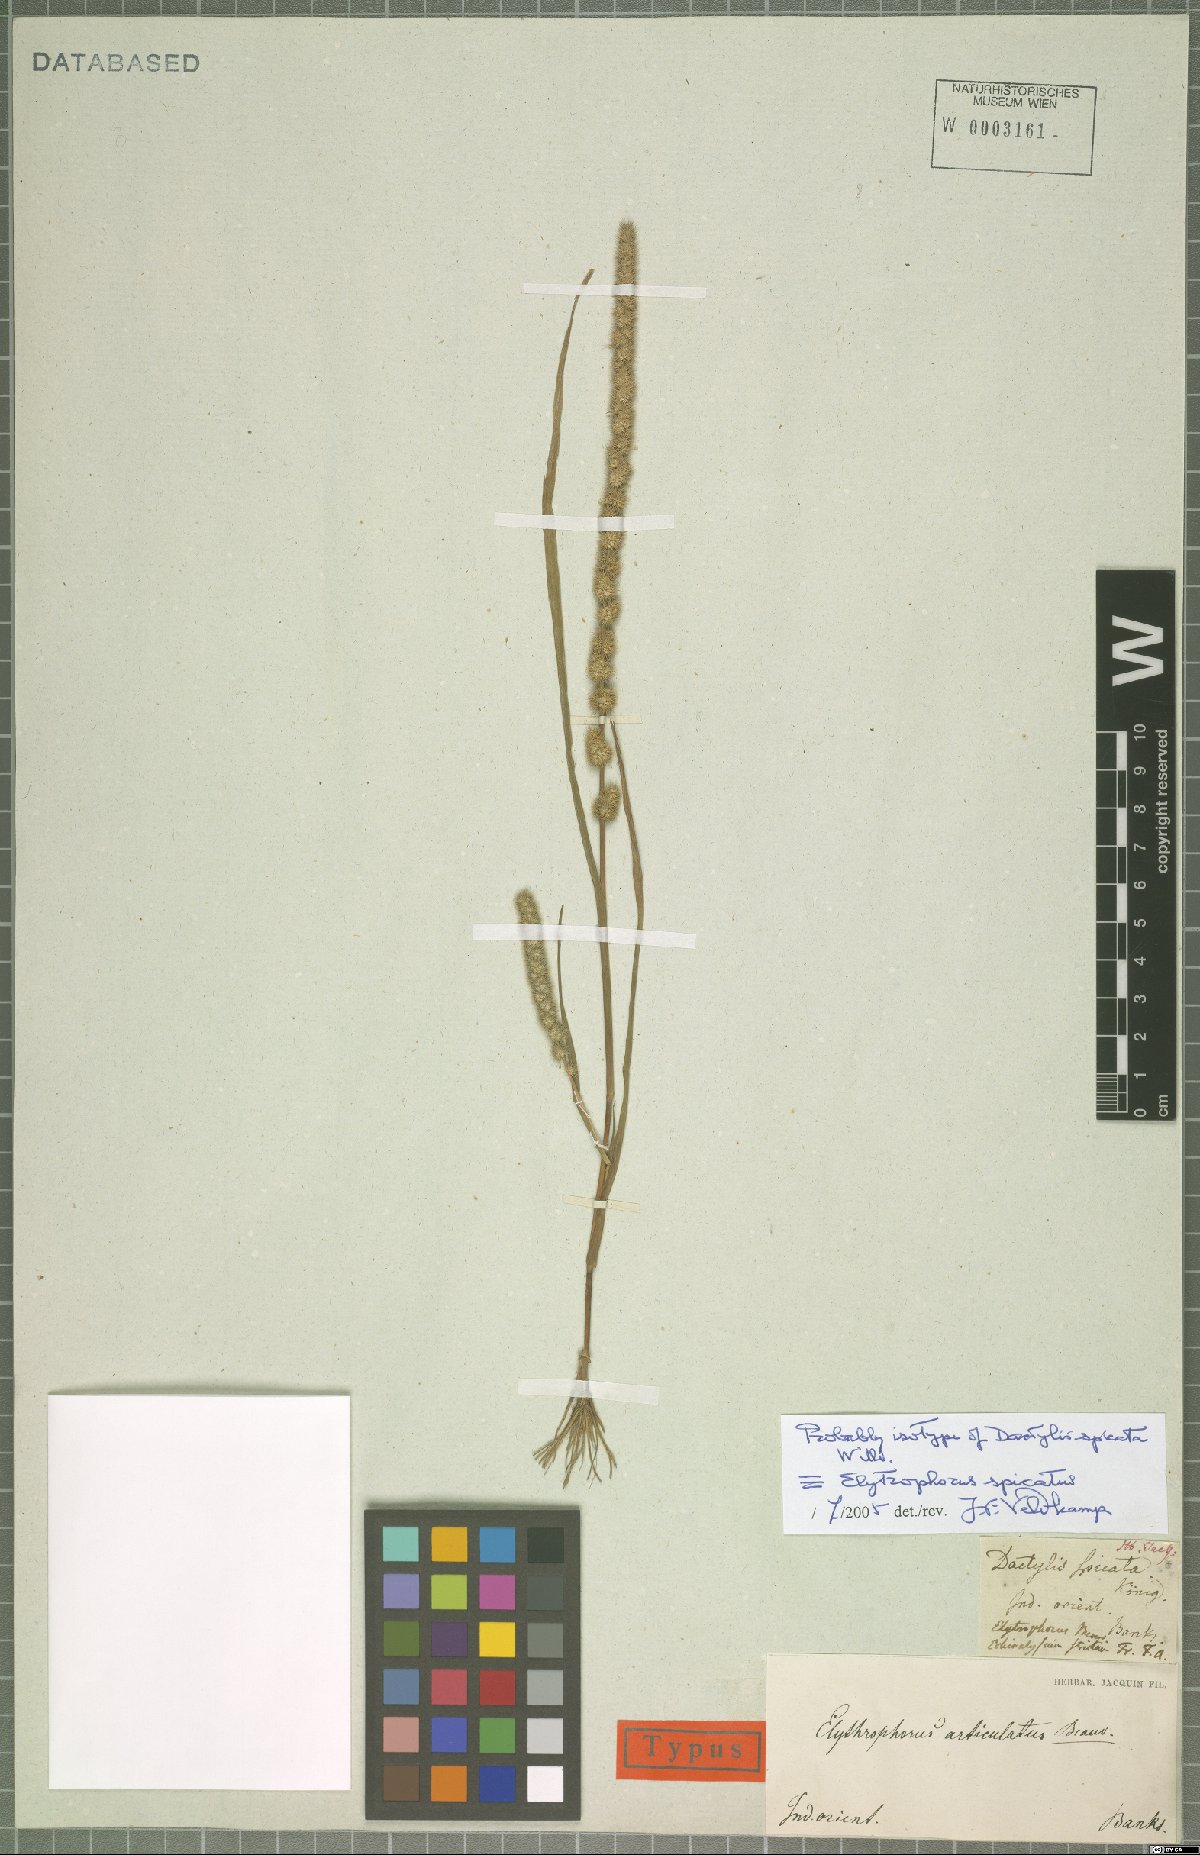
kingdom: Plantae
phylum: Tracheophyta
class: Liliopsida
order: Poales
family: Poaceae
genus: Elytrophorus
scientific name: Elytrophorus spicatus
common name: Spike grass
